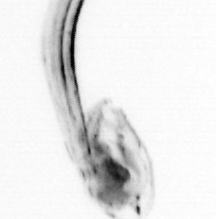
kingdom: Animalia
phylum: Chordata
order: Copelata
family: Fritillariidae
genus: Appendicularia
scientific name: Appendicularia
